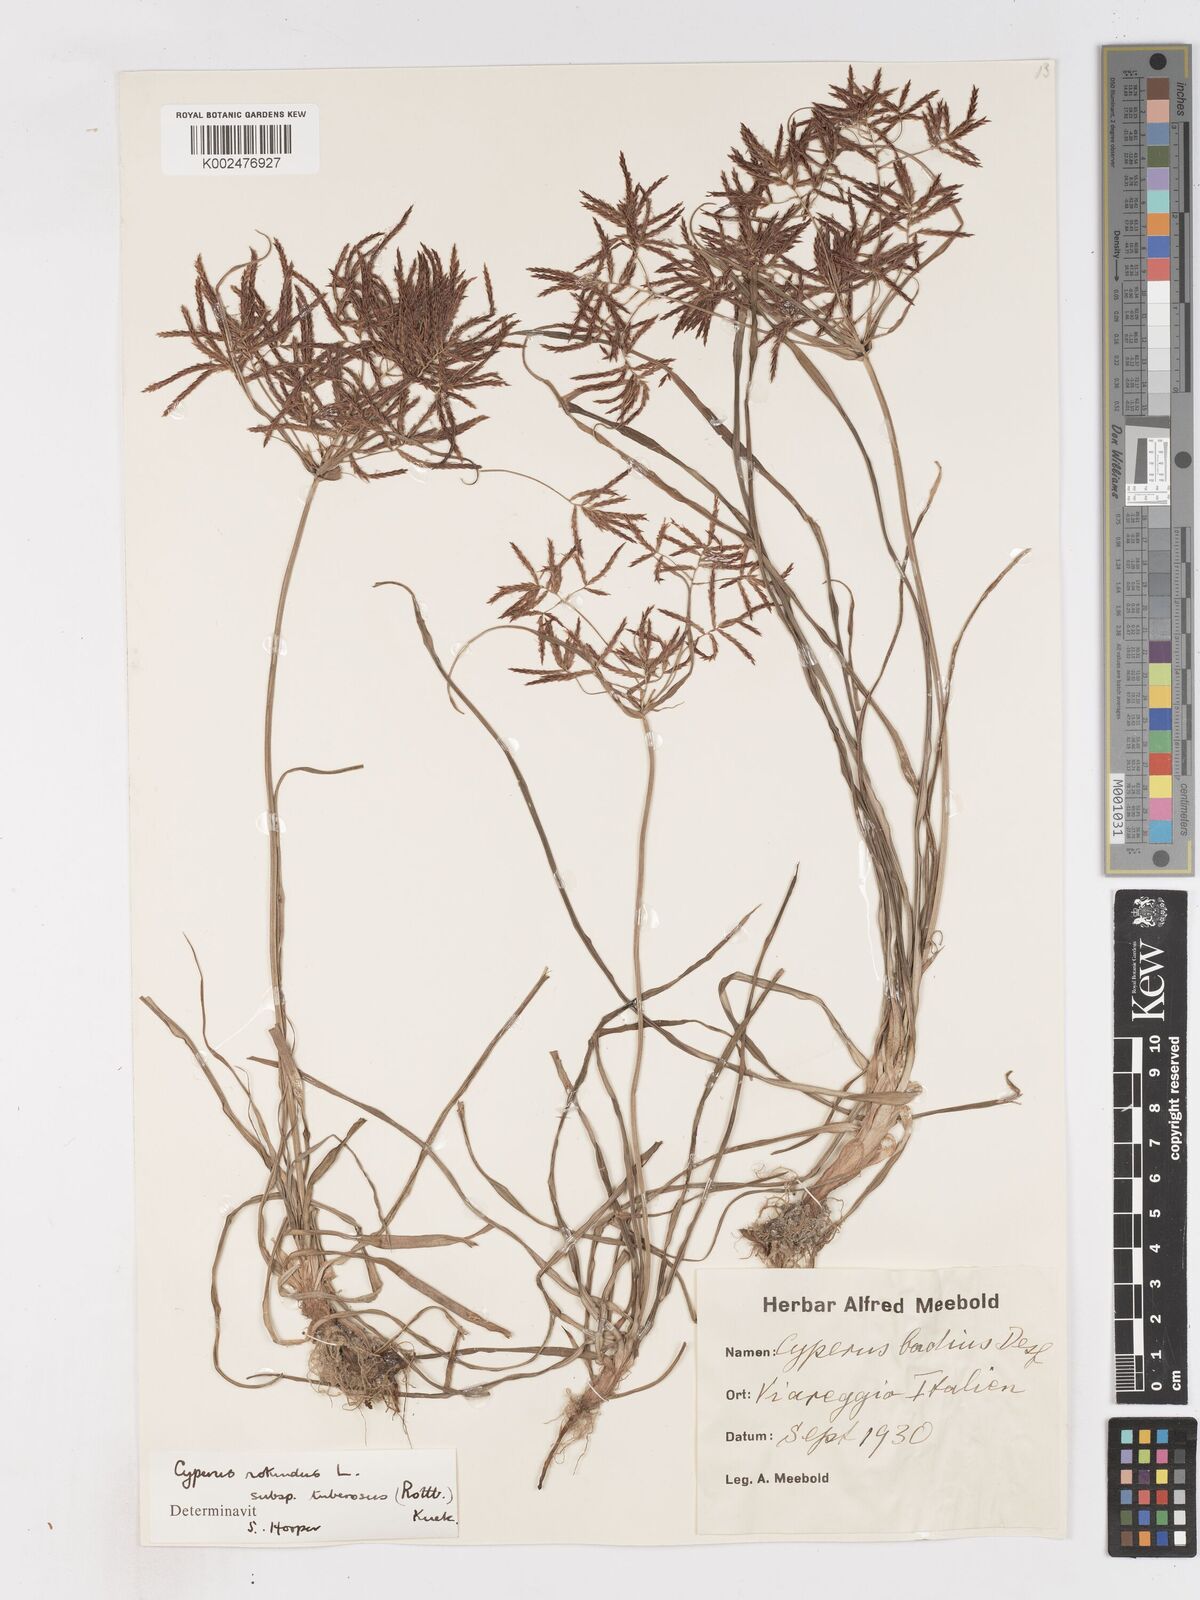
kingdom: Plantae
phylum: Tracheophyta
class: Liliopsida
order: Poales
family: Cyperaceae
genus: Cyperus
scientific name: Cyperus rotundus
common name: Nutgrass
